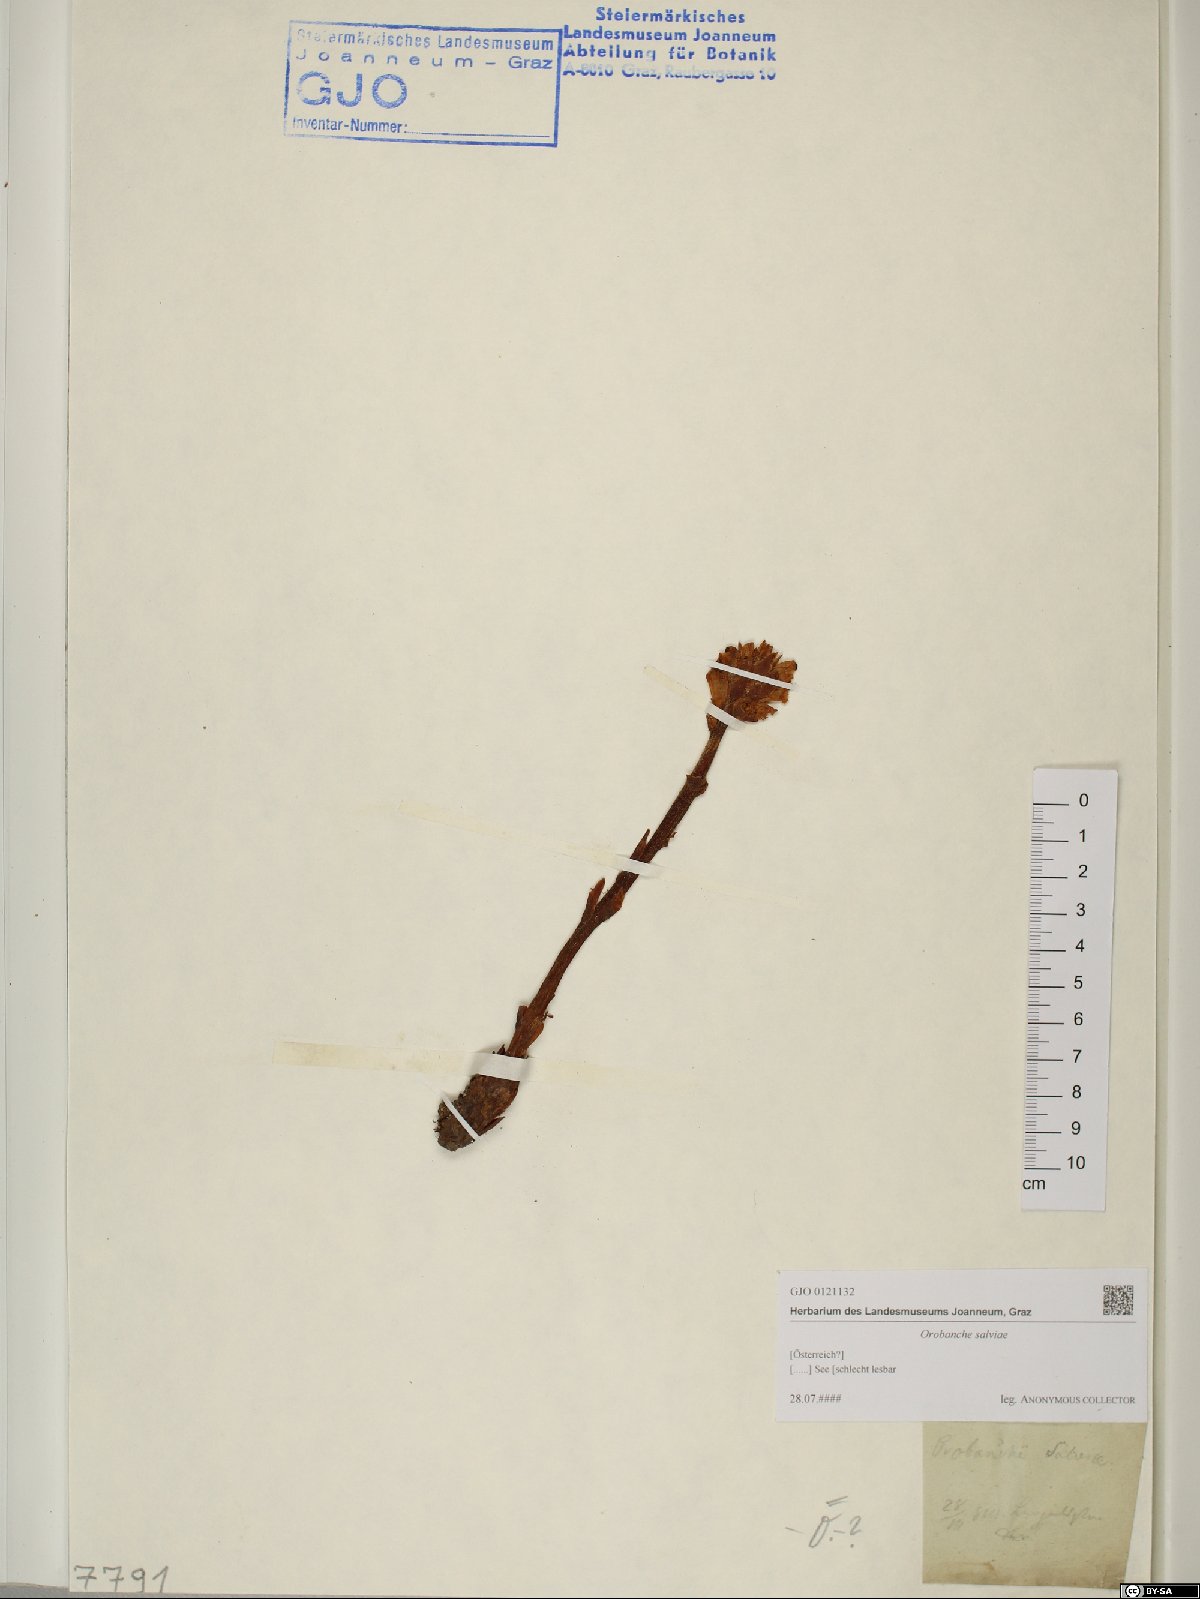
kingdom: Plantae
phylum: Tracheophyta
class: Magnoliopsida
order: Lamiales
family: Orobanchaceae
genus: Orobanche
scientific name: Orobanche salviae
